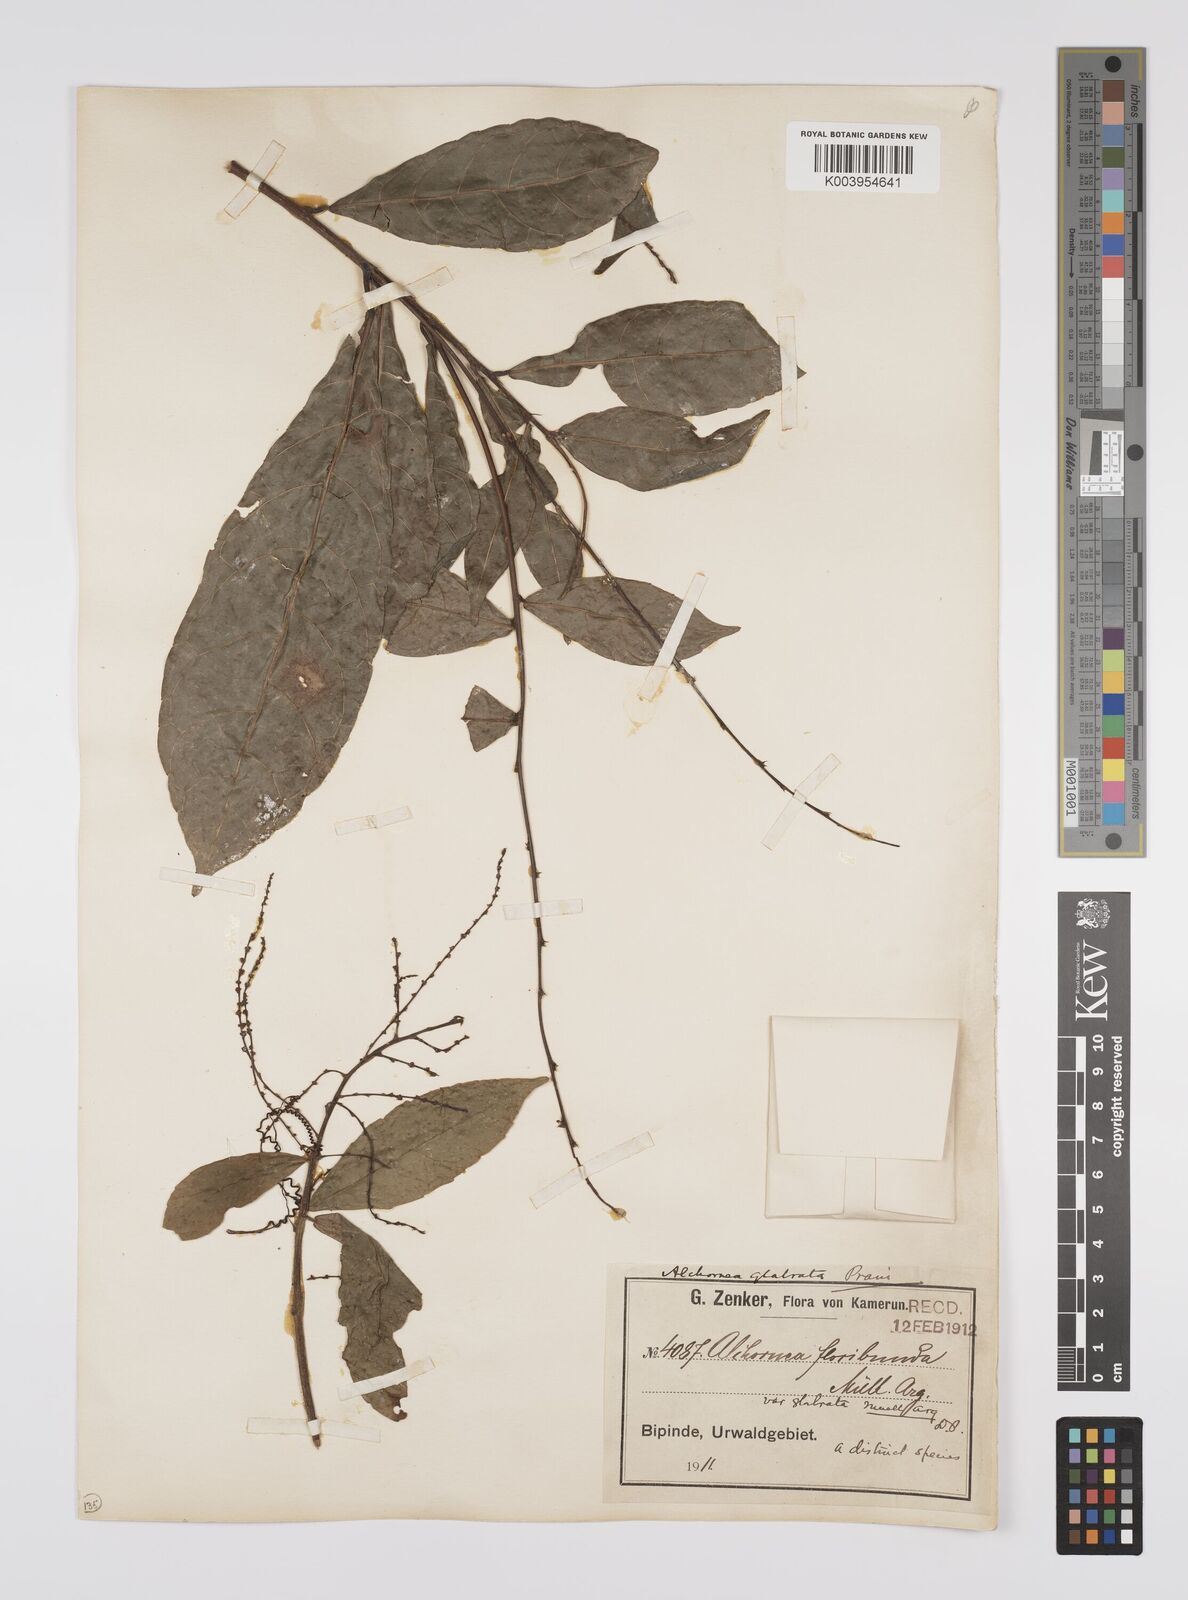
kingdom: Plantae
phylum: Tracheophyta
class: Magnoliopsida
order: Malpighiales
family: Euphorbiaceae
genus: Alchornea
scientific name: Alchornea hirtella
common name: Forest bead-string
